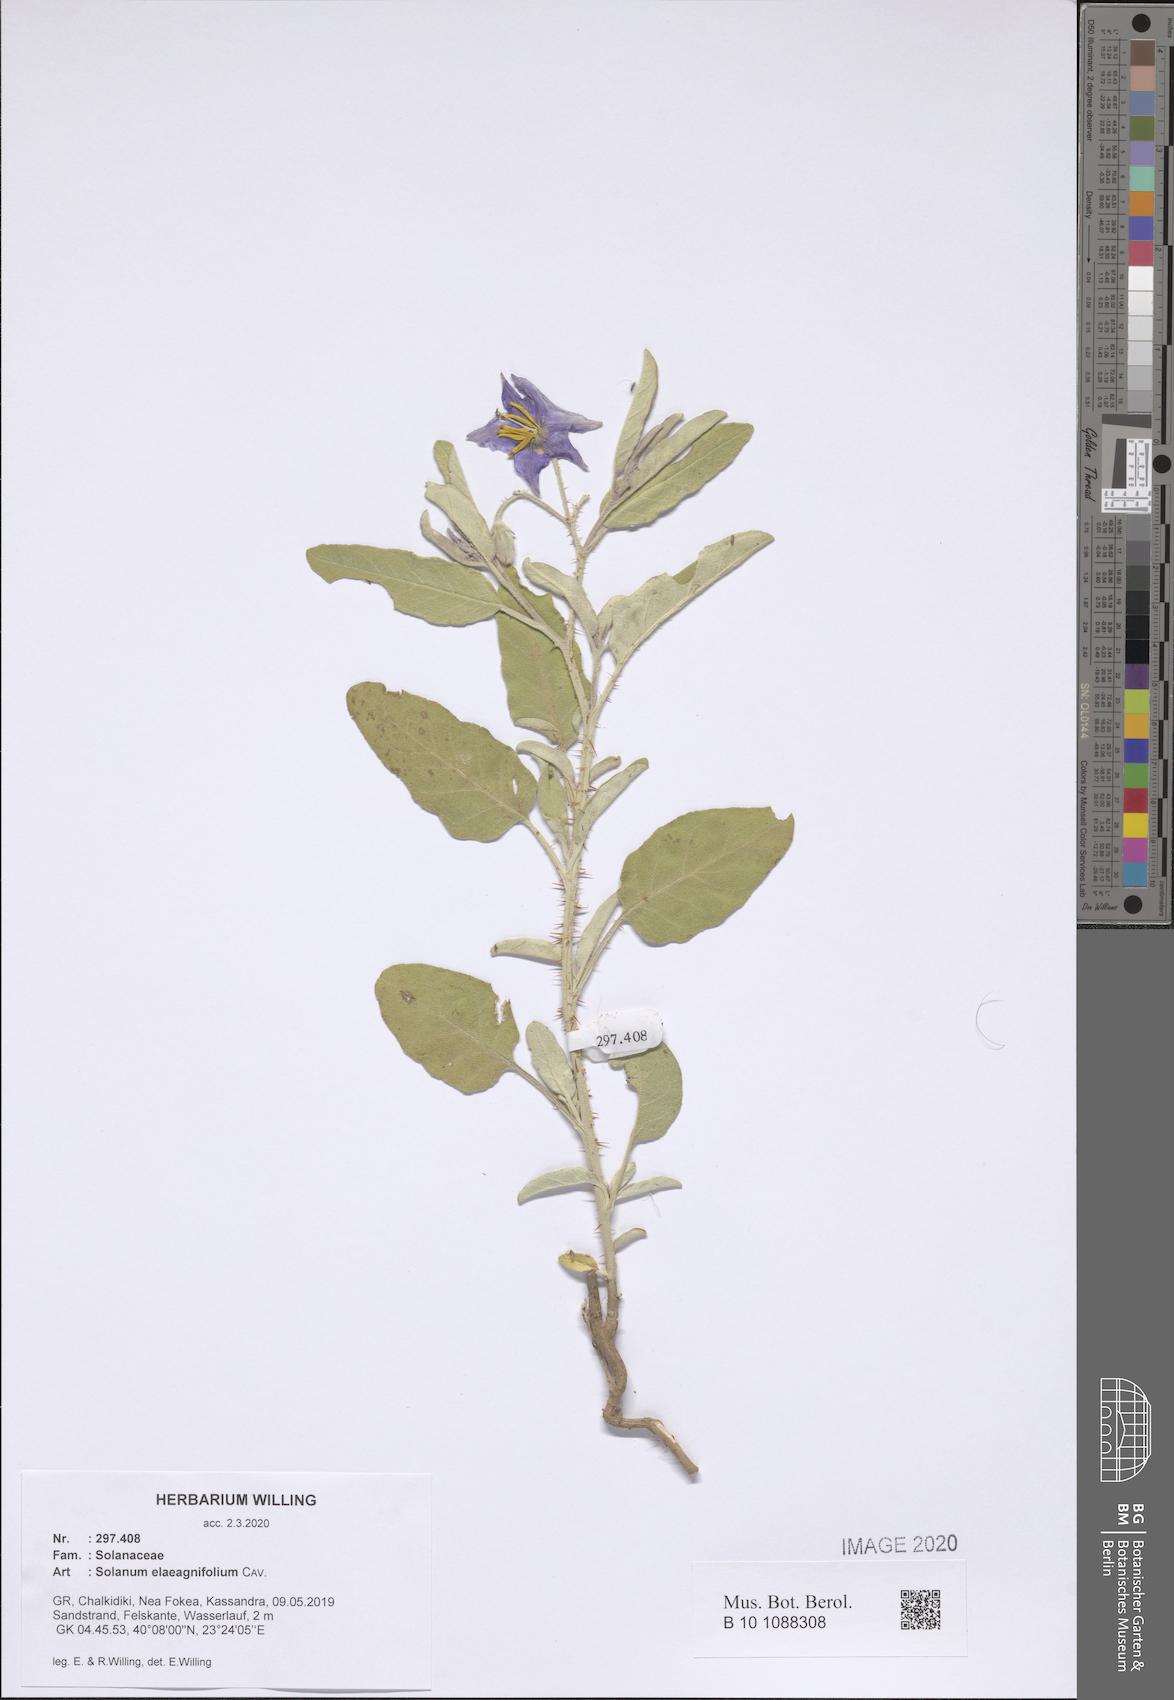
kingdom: Plantae
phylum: Tracheophyta
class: Magnoliopsida
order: Solanales
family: Solanaceae
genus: Solanum
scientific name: Solanum elaeagnifolium
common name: Silverleaf nightshade
